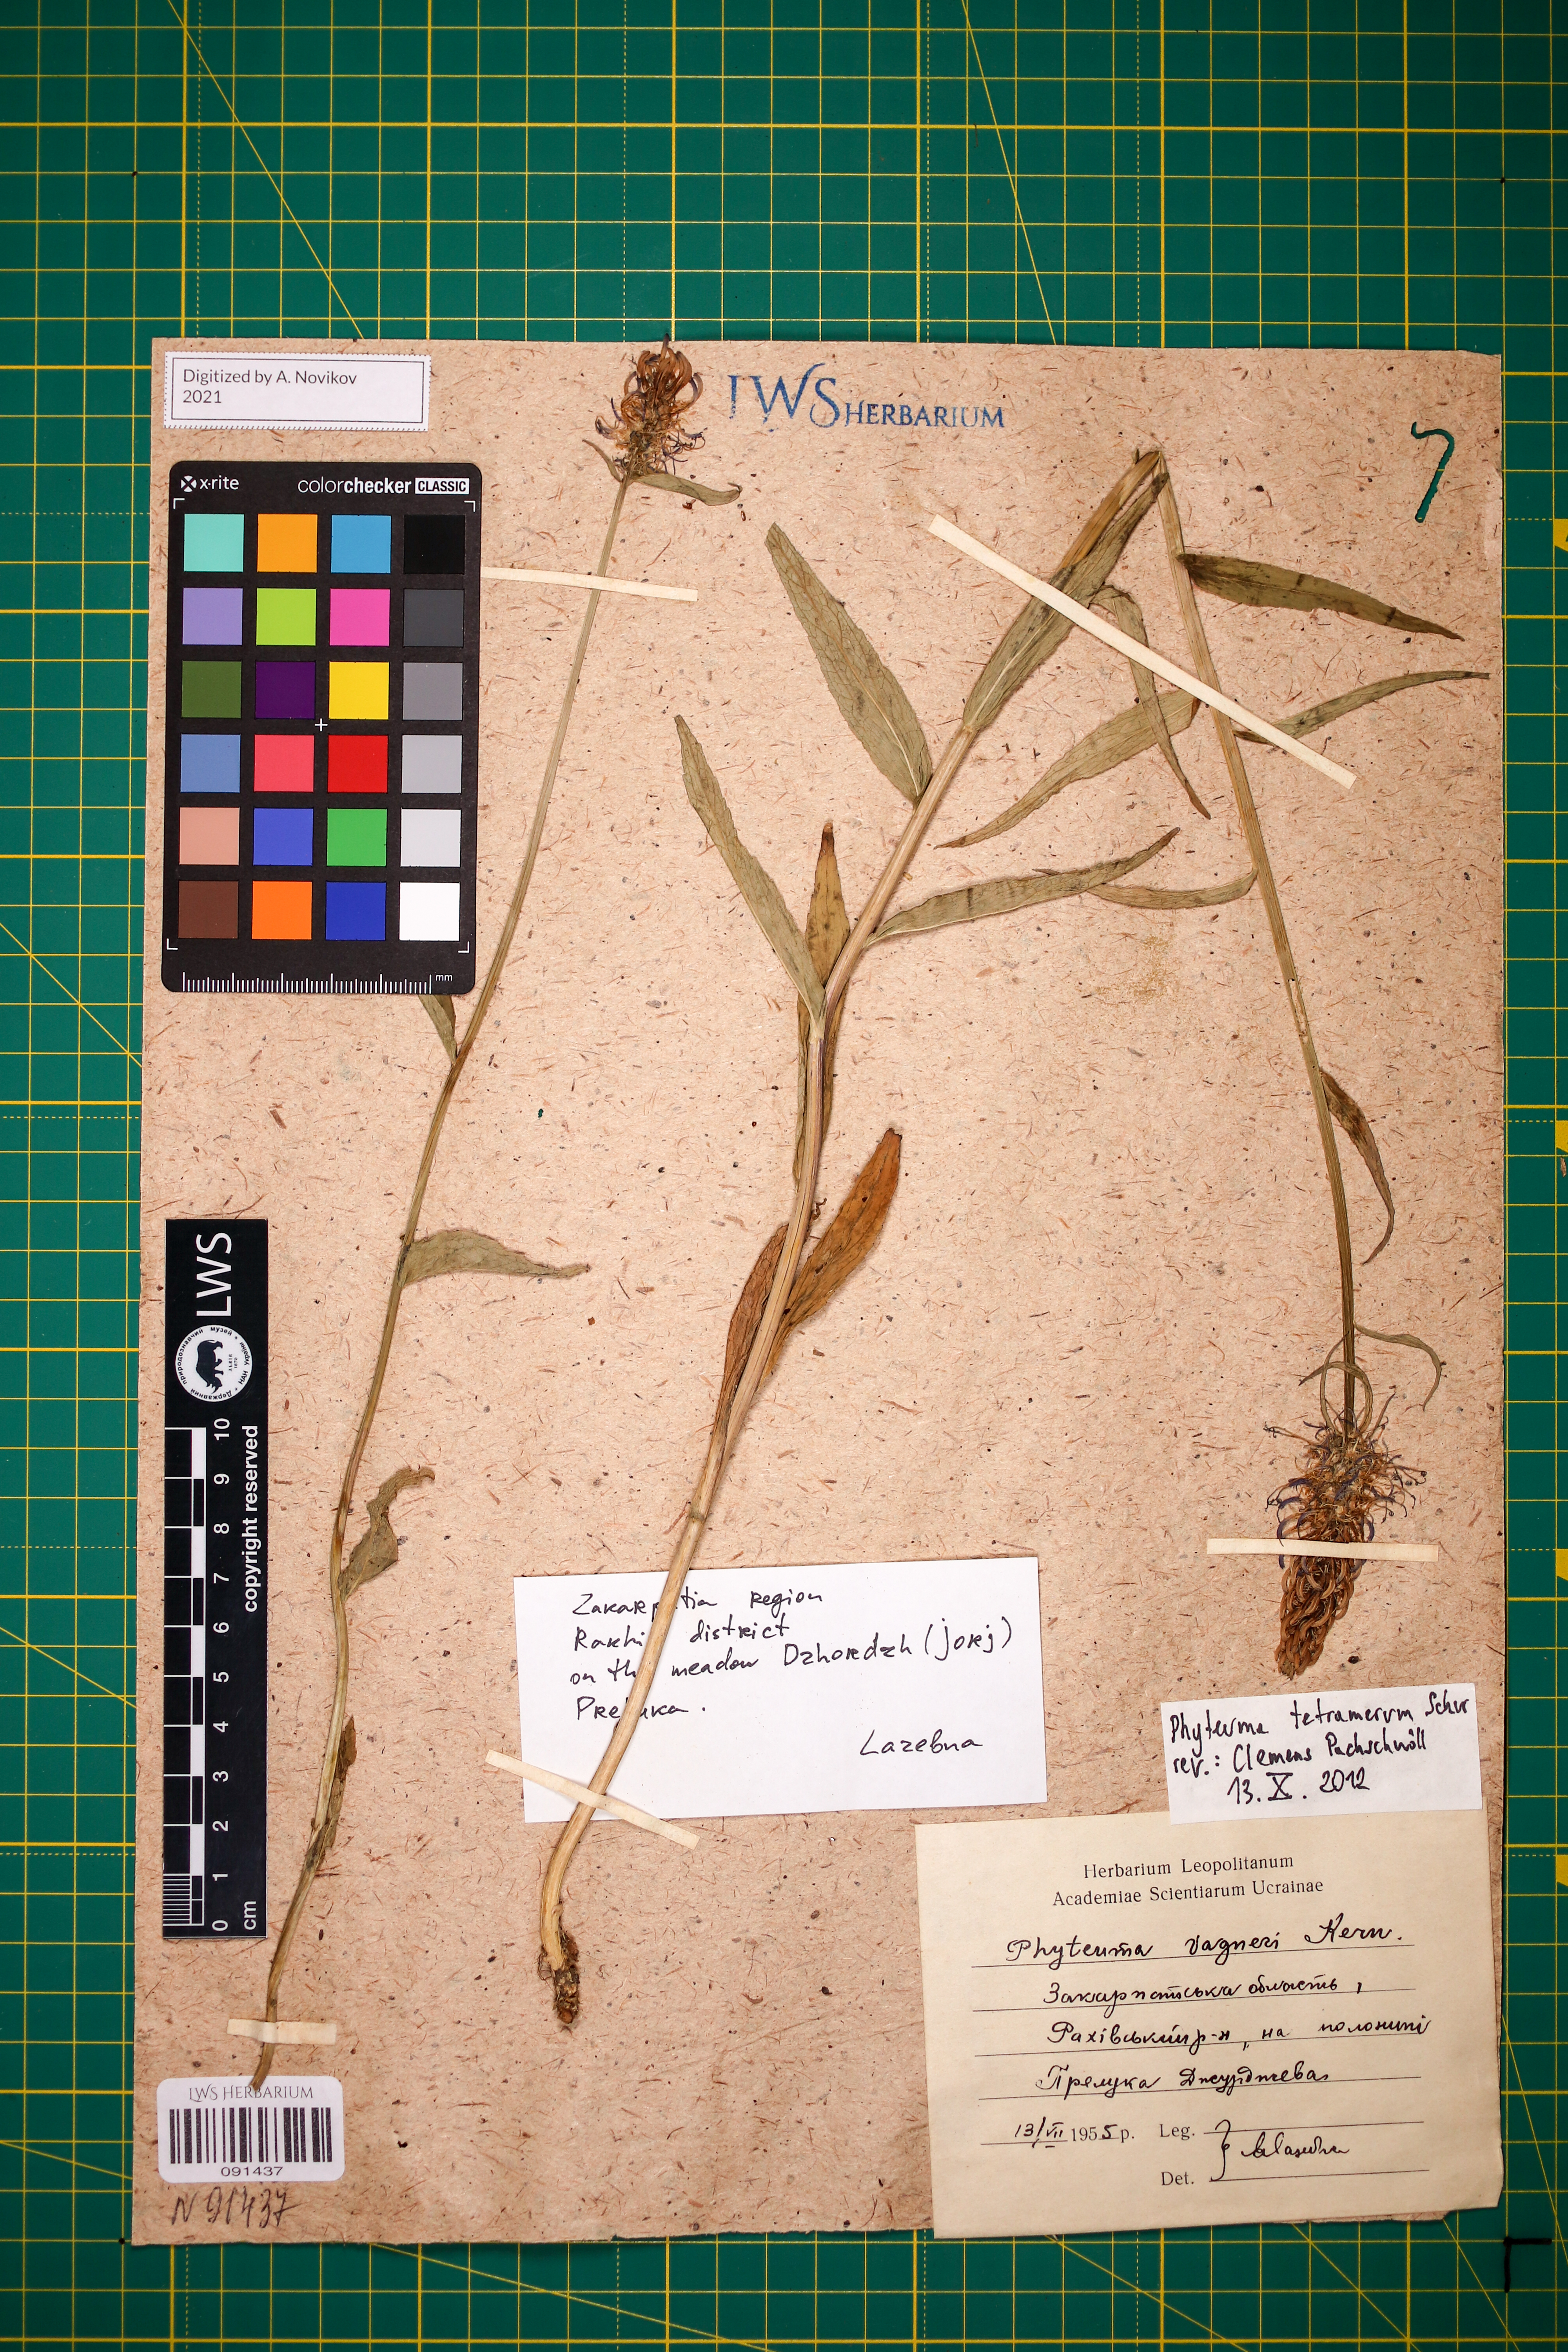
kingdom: Plantae
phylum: Tracheophyta
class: Magnoliopsida
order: Asterales
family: Campanulaceae
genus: Phyteuma
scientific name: Phyteuma tetramerum
